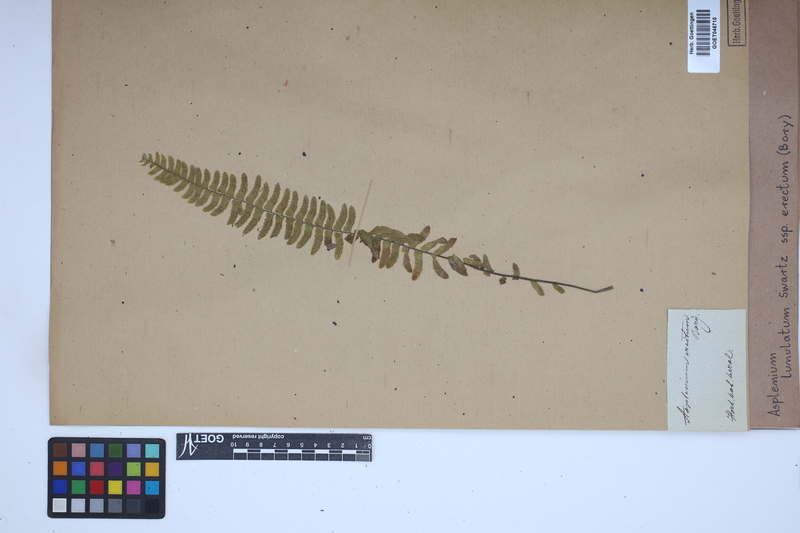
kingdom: Plantae
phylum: Tracheophyta
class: Polypodiopsida
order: Polypodiales
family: Aspleniaceae
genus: Asplenium
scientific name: Asplenium erectum
